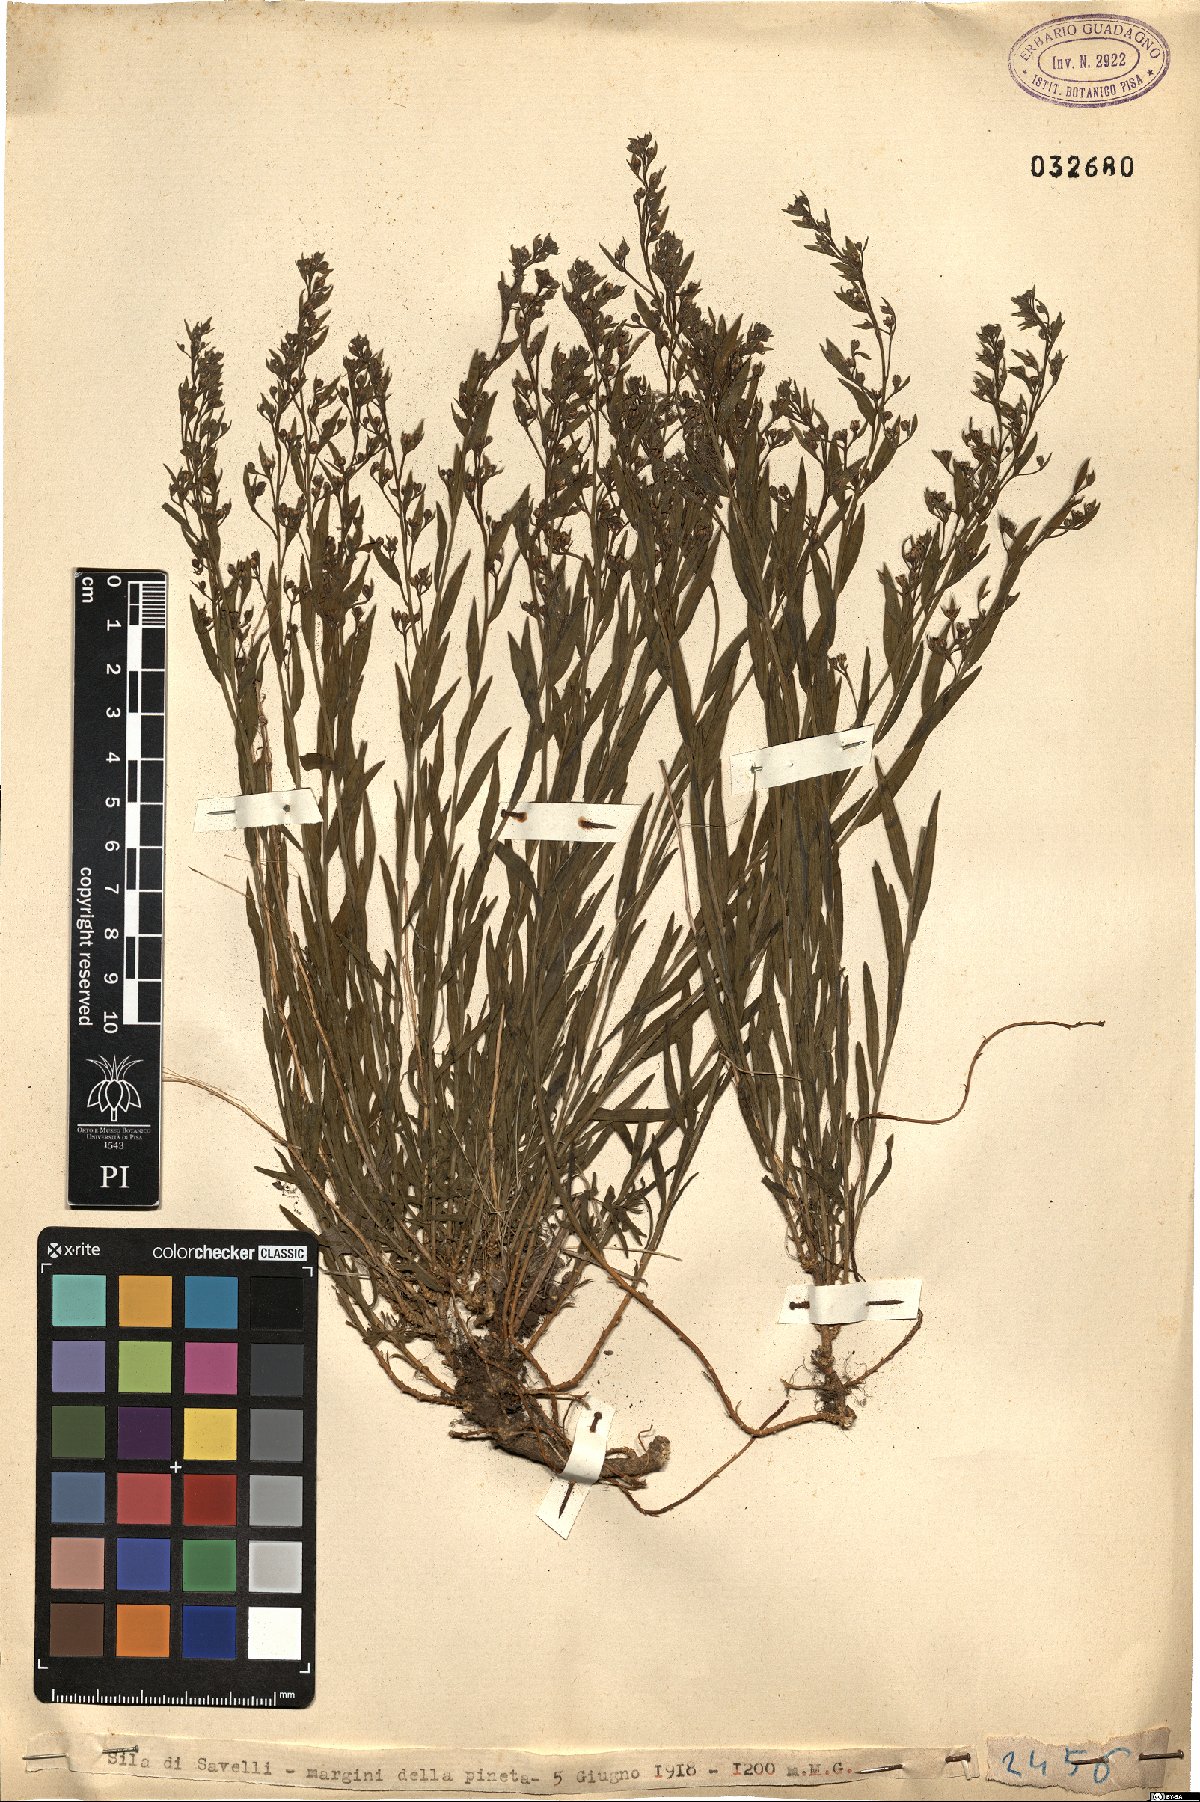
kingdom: Plantae
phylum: Tracheophyta
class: Magnoliopsida
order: Santalales
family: Thesiaceae
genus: Thesium
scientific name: Thesium
